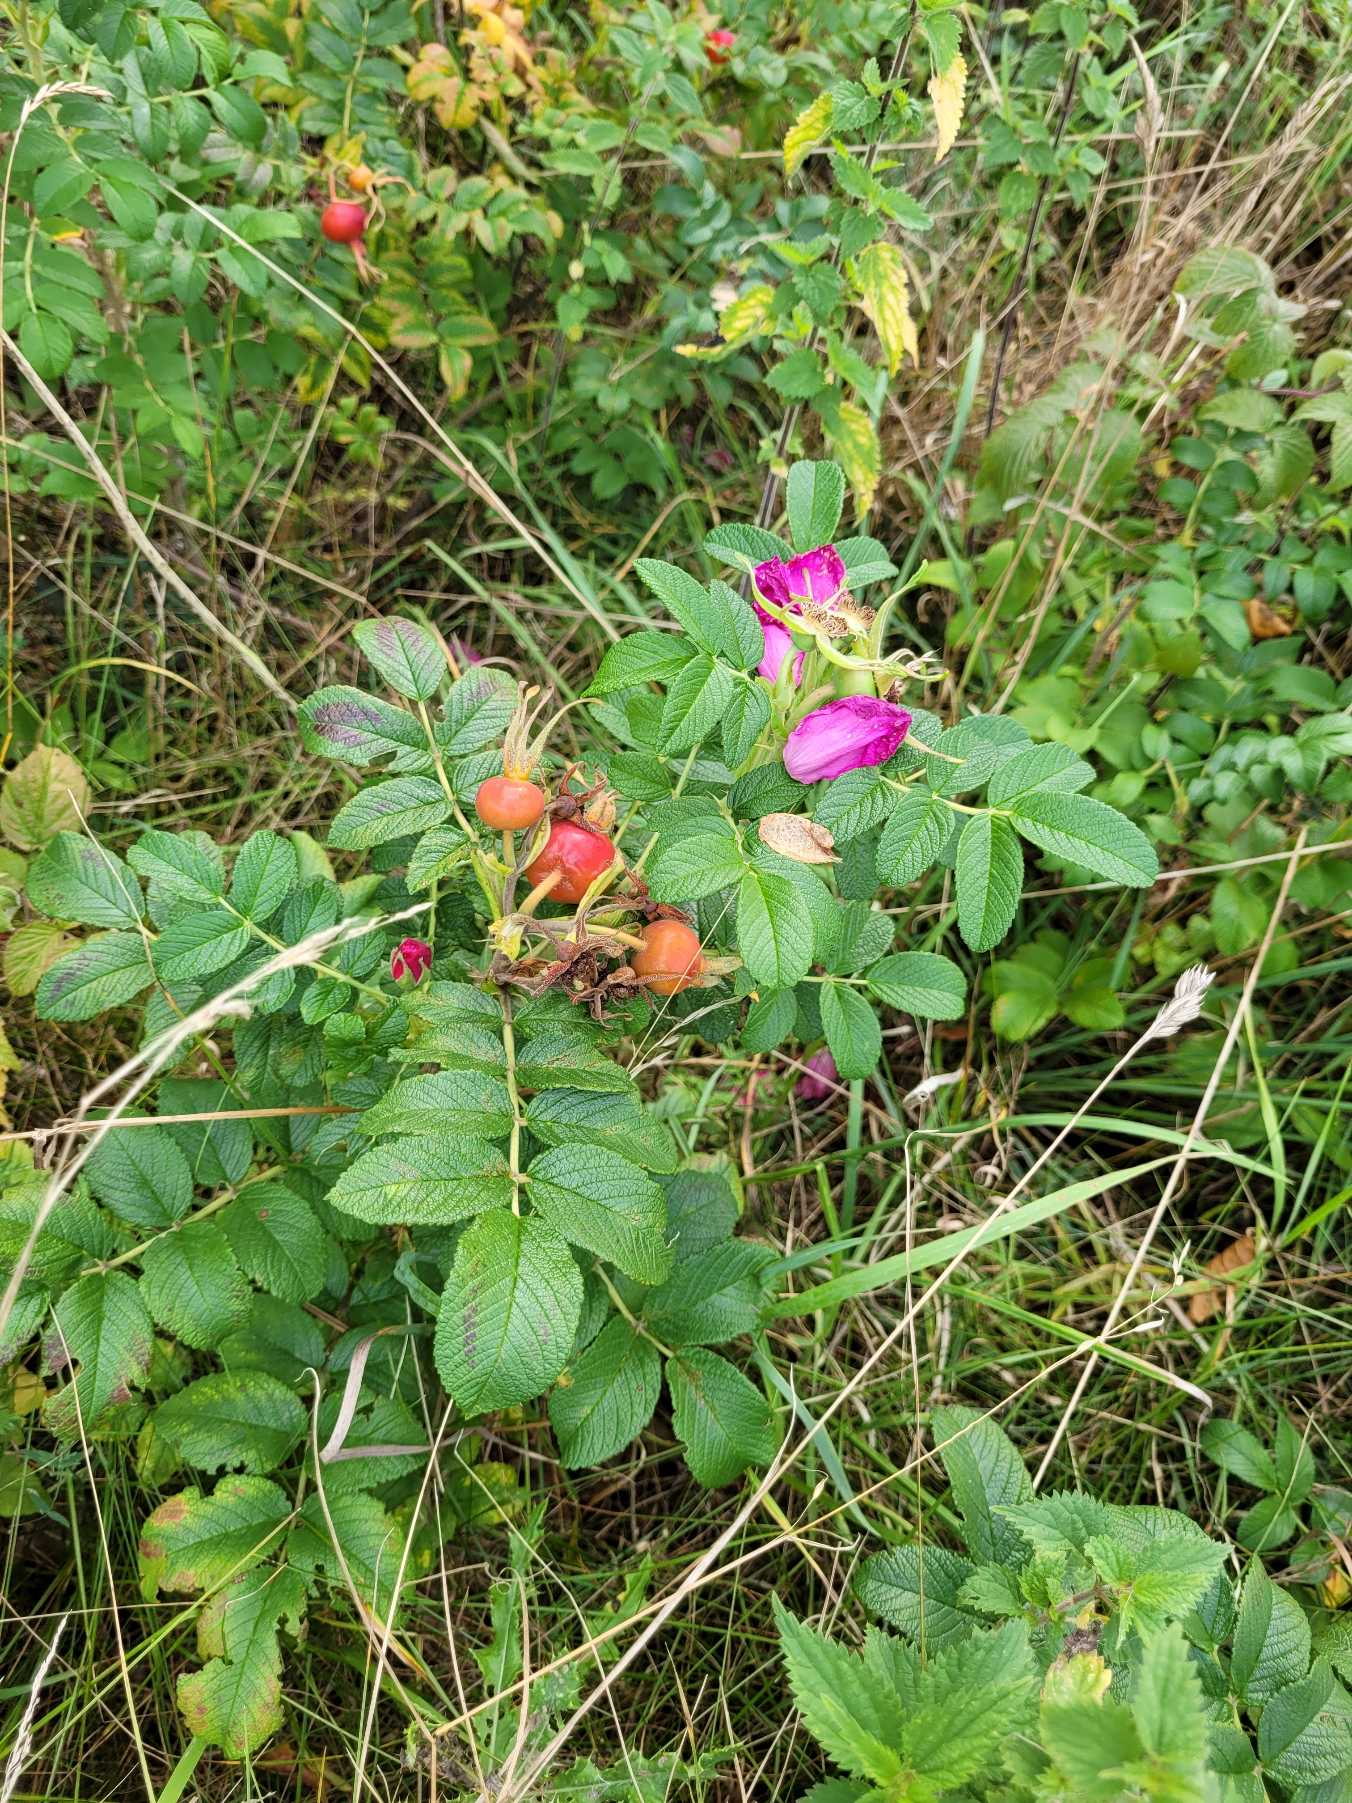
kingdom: Plantae
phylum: Tracheophyta
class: Magnoliopsida
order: Rosales
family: Rosaceae
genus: Rosa
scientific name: Rosa rugosa
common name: Rynket rose
